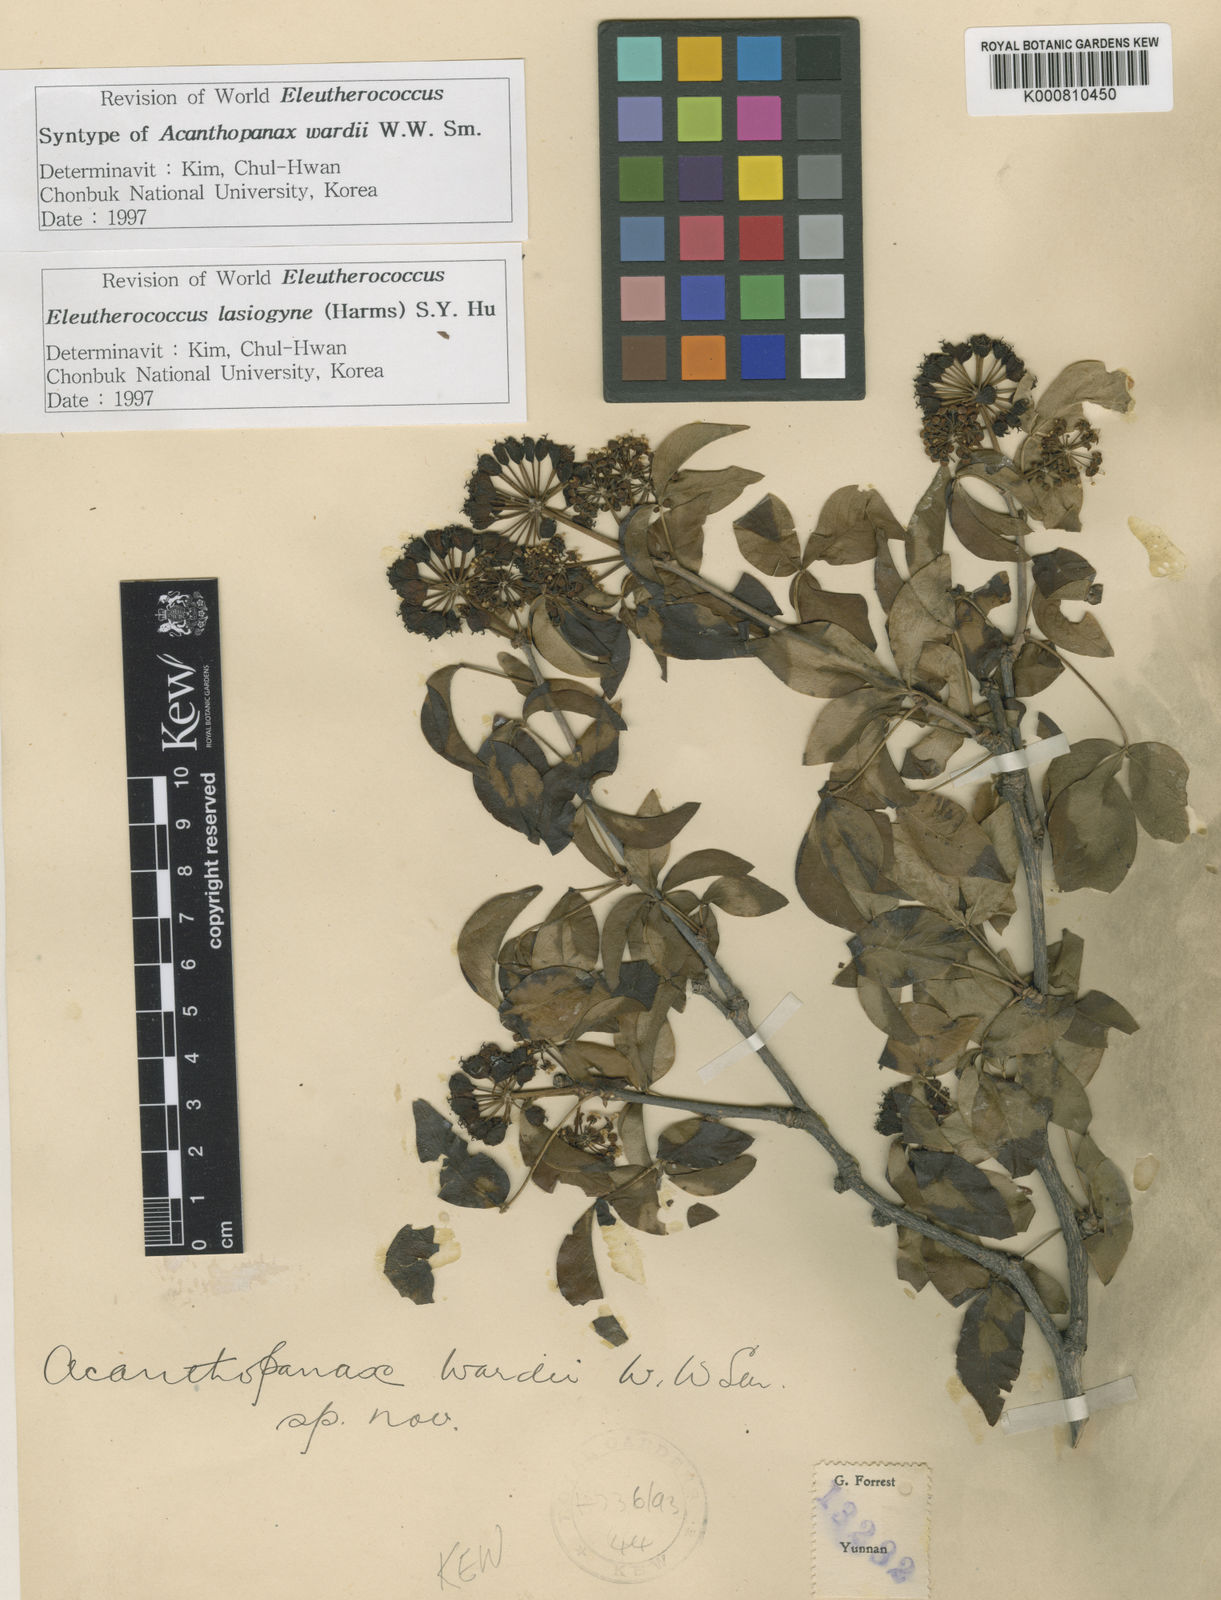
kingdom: Plantae
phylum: Tracheophyta
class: Magnoliopsida
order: Apiales
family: Araliaceae
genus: Eleutherococcus
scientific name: Eleutherococcus wardii
